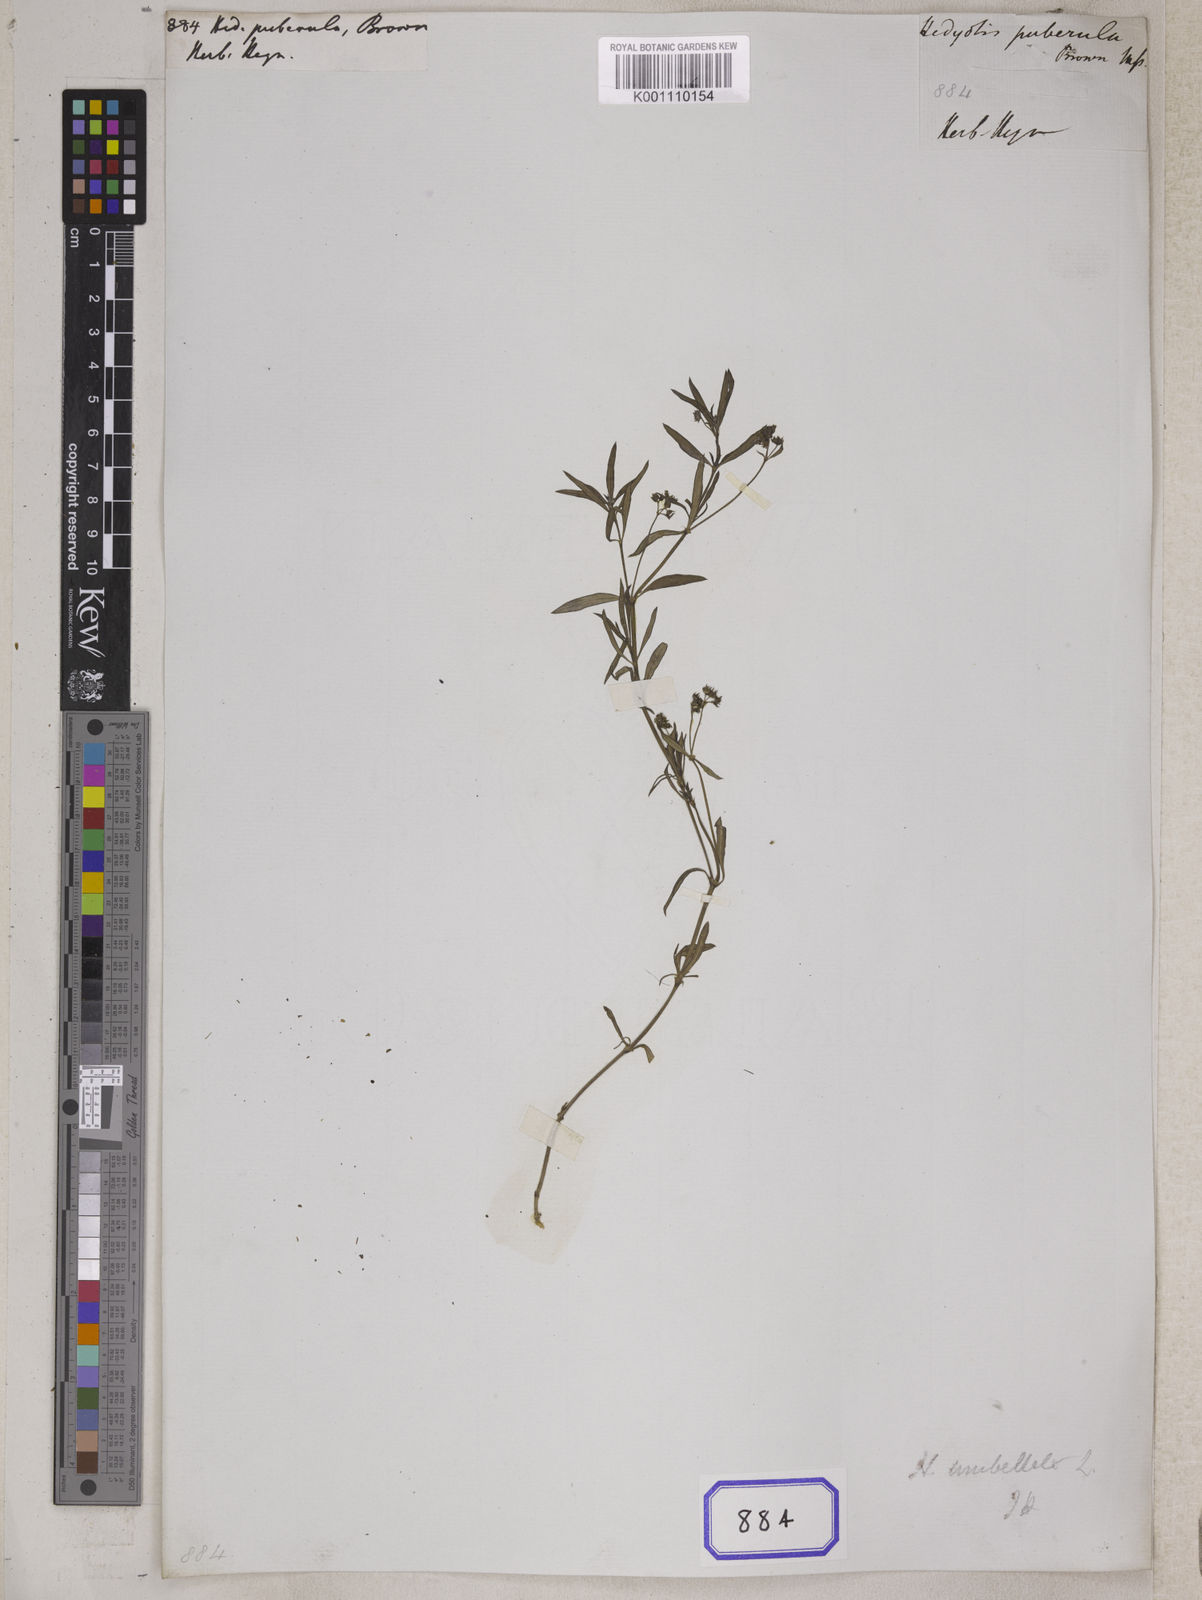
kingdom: Plantae
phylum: Tracheophyta
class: Magnoliopsida
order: Gentianales
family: Rubiaceae
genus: Hedyotis
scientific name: Hedyotis
